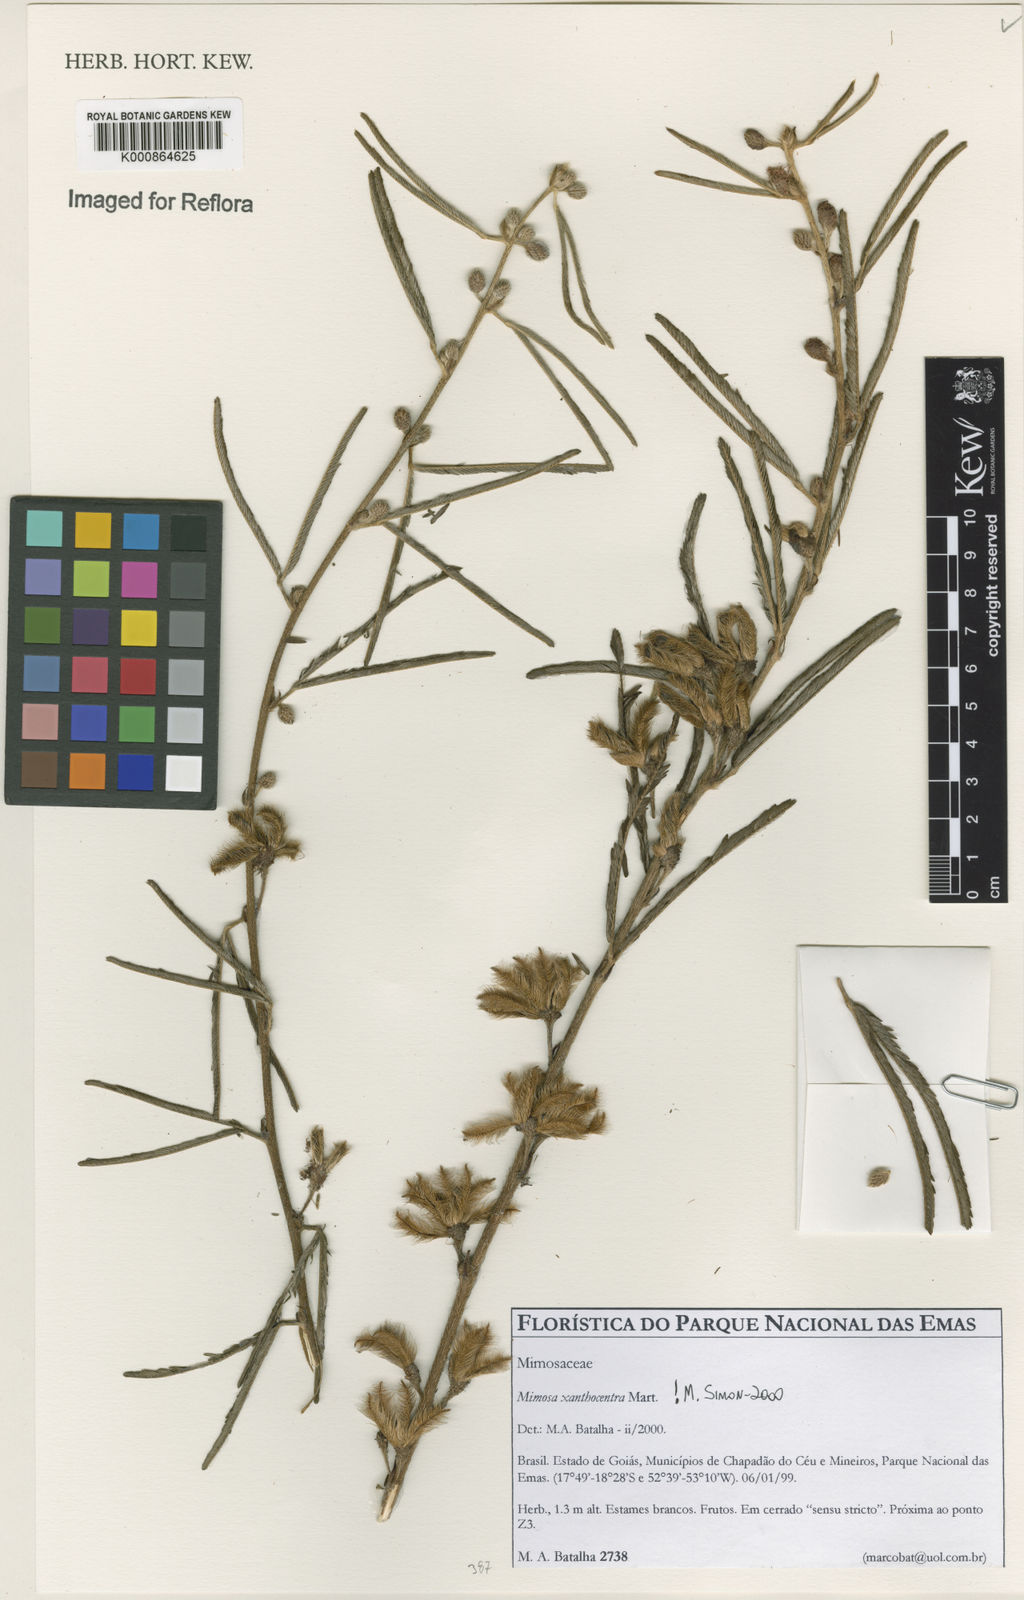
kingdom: Plantae
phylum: Tracheophyta
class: Magnoliopsida
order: Fabales
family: Fabaceae
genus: Mimosa
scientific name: Mimosa
